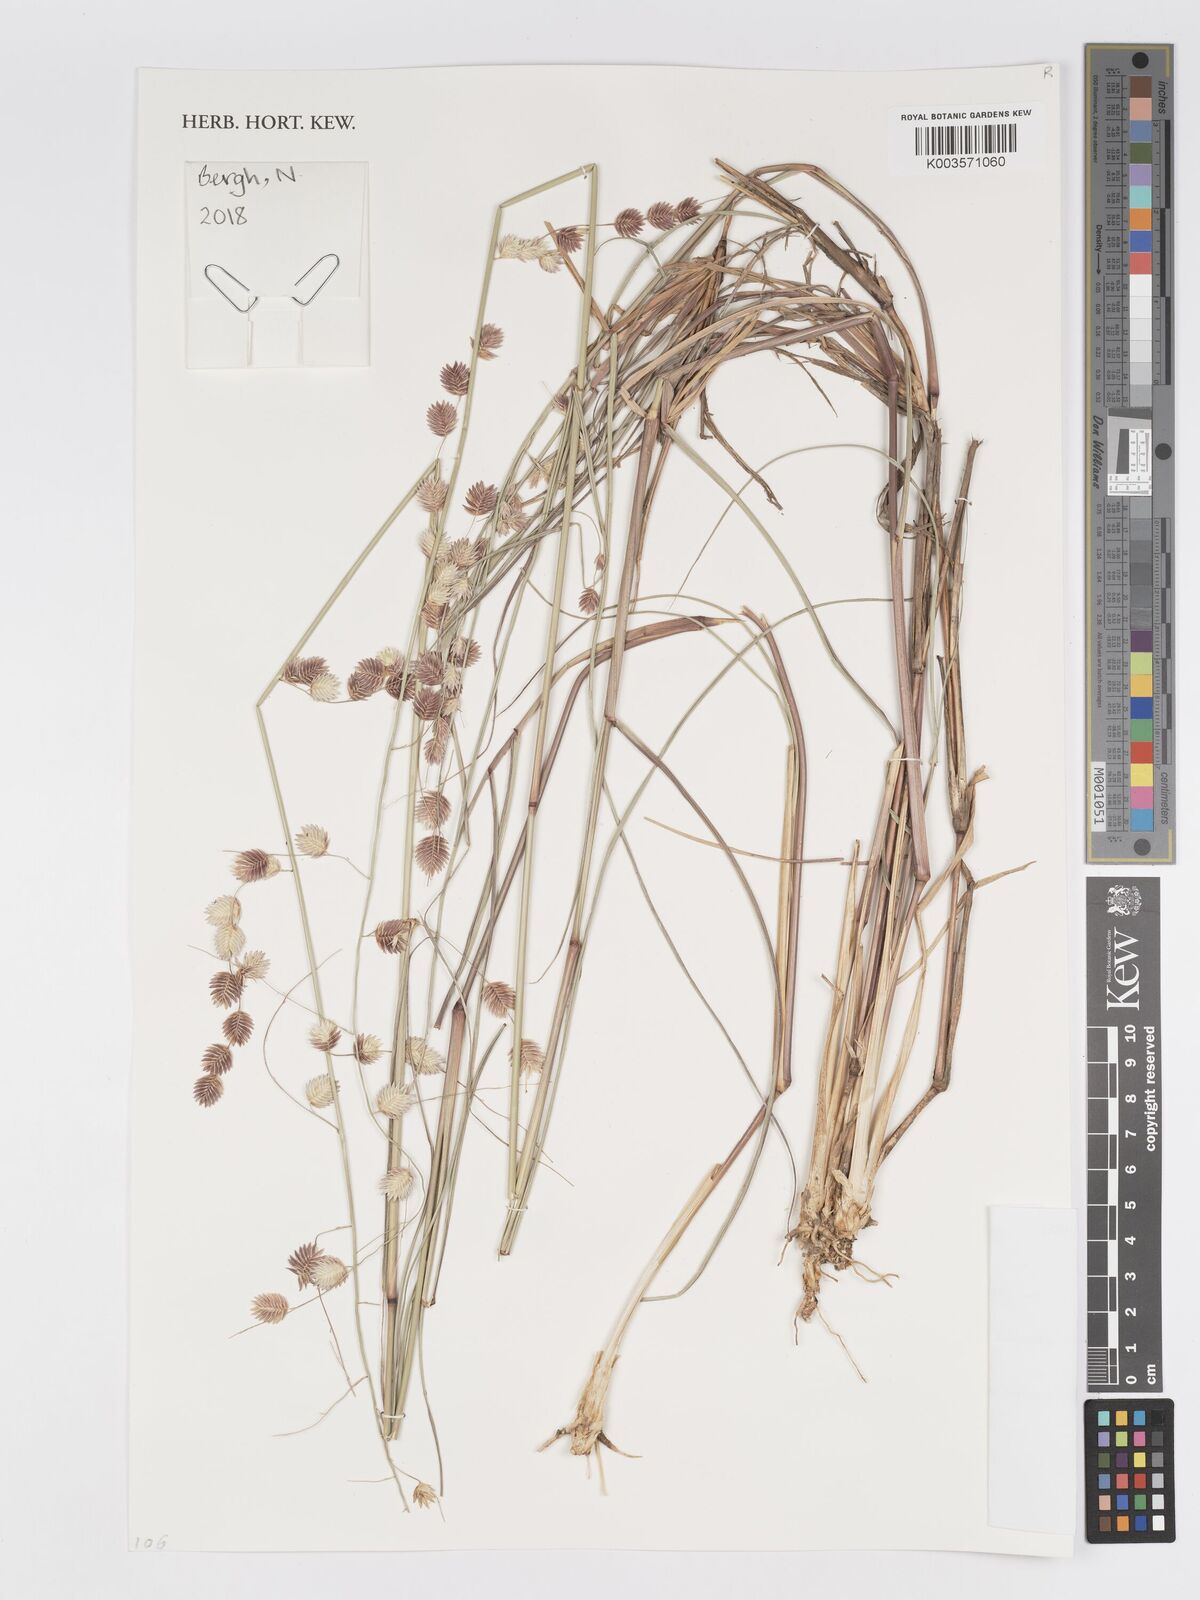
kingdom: Plantae
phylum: Tracheophyta
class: Liliopsida
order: Poales
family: Poaceae
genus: Eragrostis
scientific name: Eragrostis superba
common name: Wilman lovegrass
